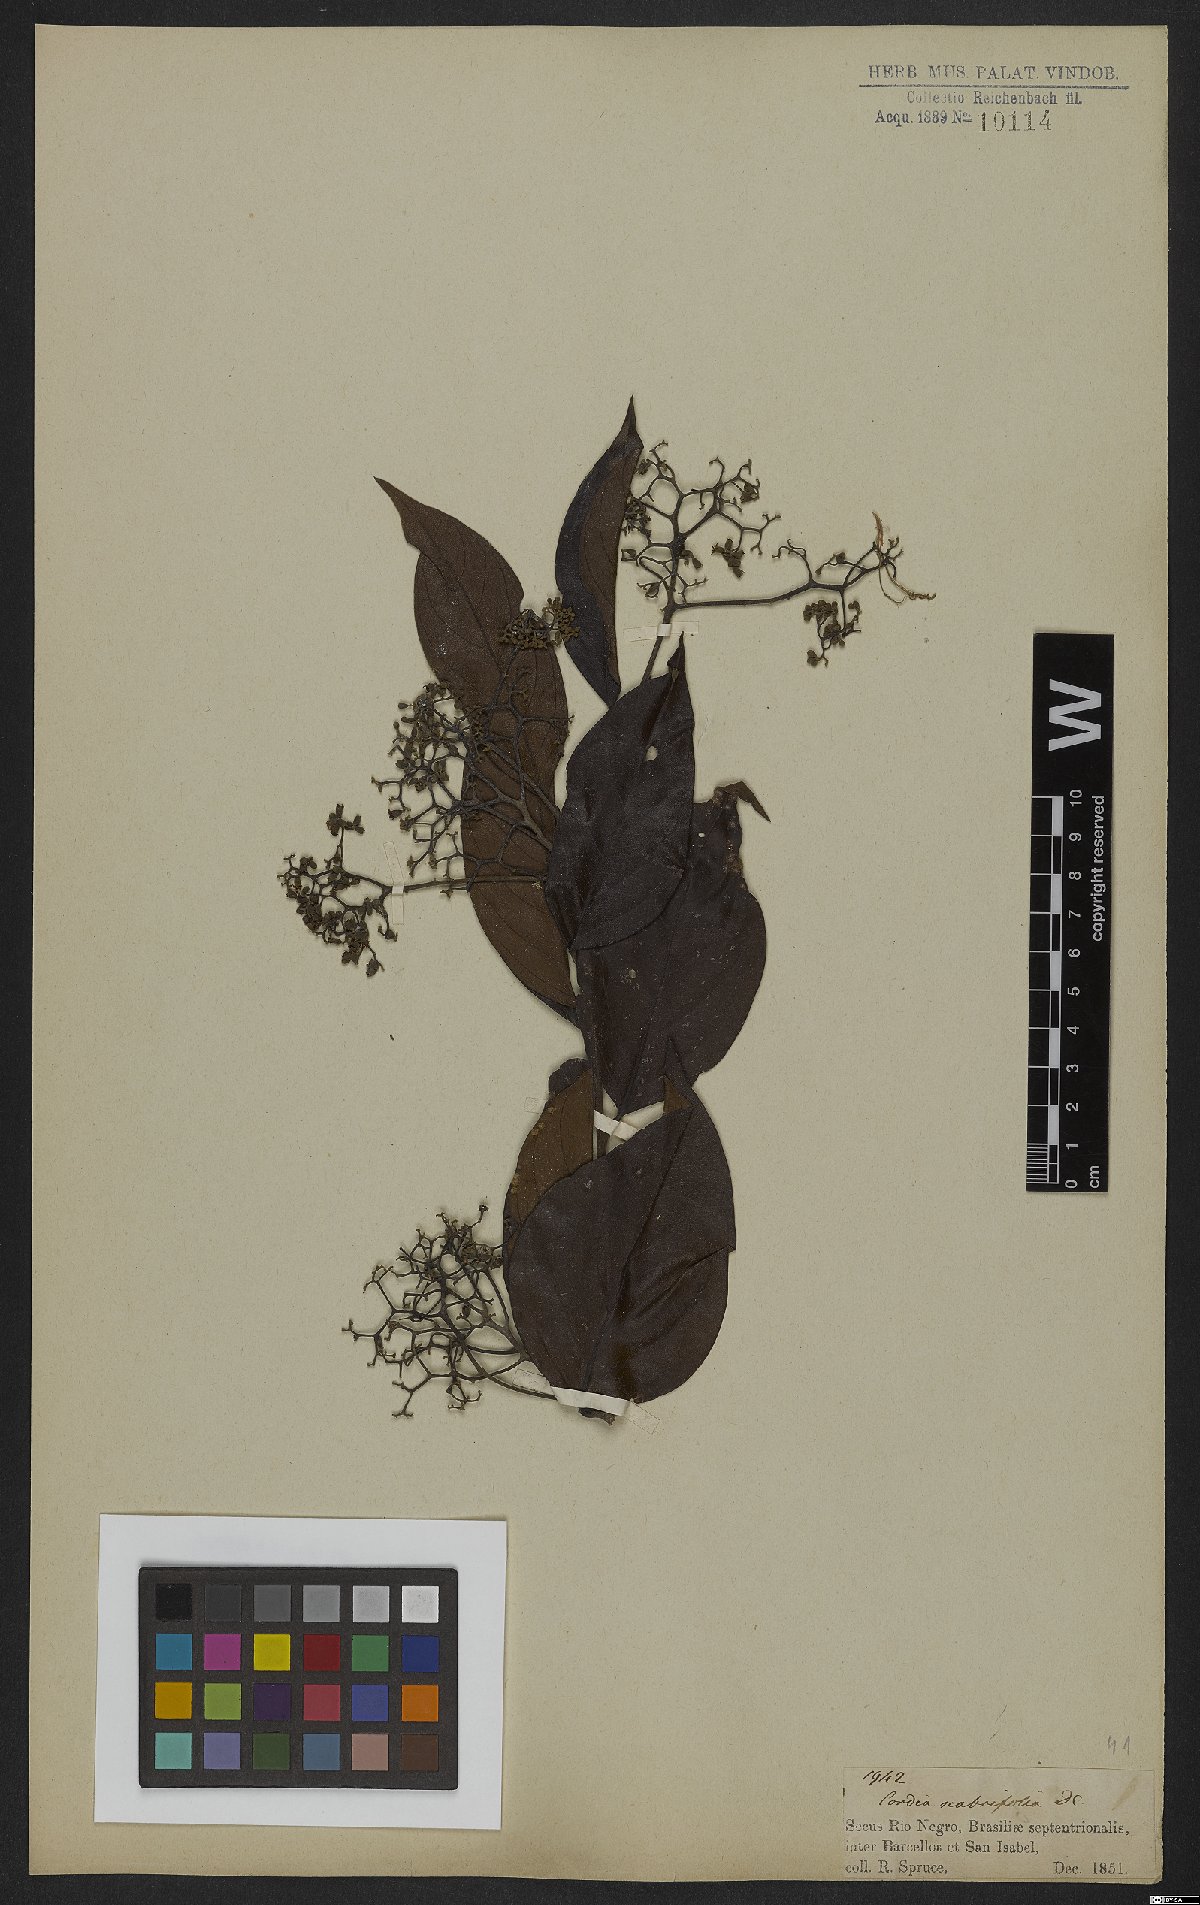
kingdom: Plantae
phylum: Tracheophyta
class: Magnoliopsida
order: Boraginales
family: Cordiaceae
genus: Cordia
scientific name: Cordia scabrifolia
